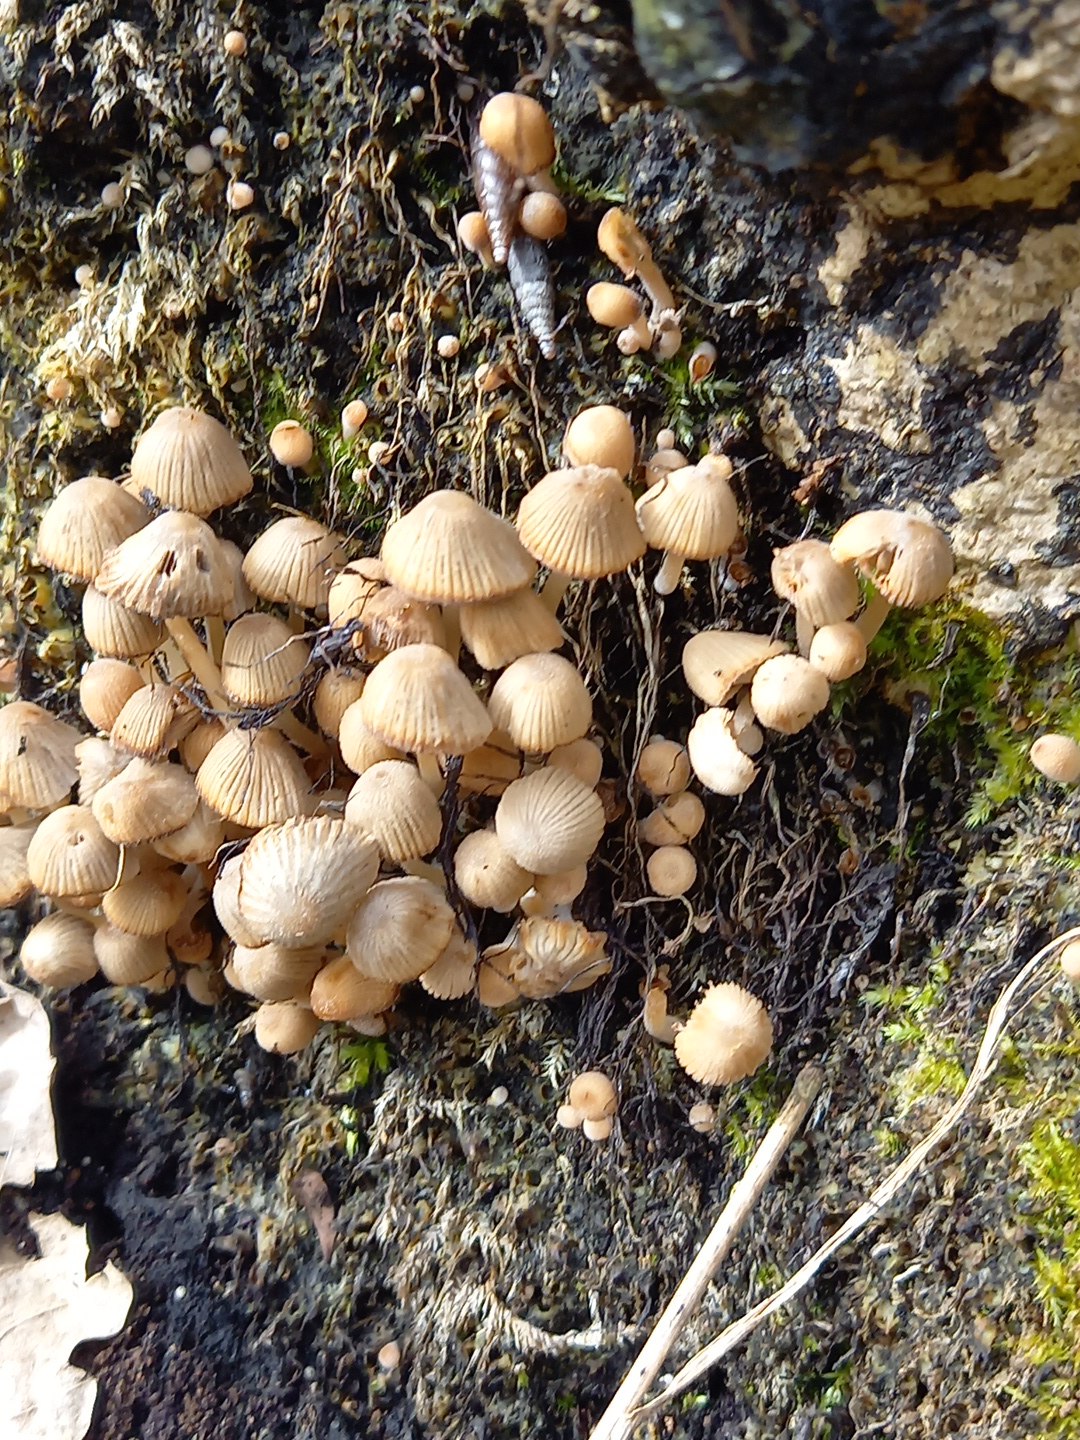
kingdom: Fungi
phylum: Basidiomycota
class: Agaricomycetes
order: Agaricales
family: Psathyrellaceae
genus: Coprinellus
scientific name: Coprinellus disseminatus
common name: bredsået blækhat
